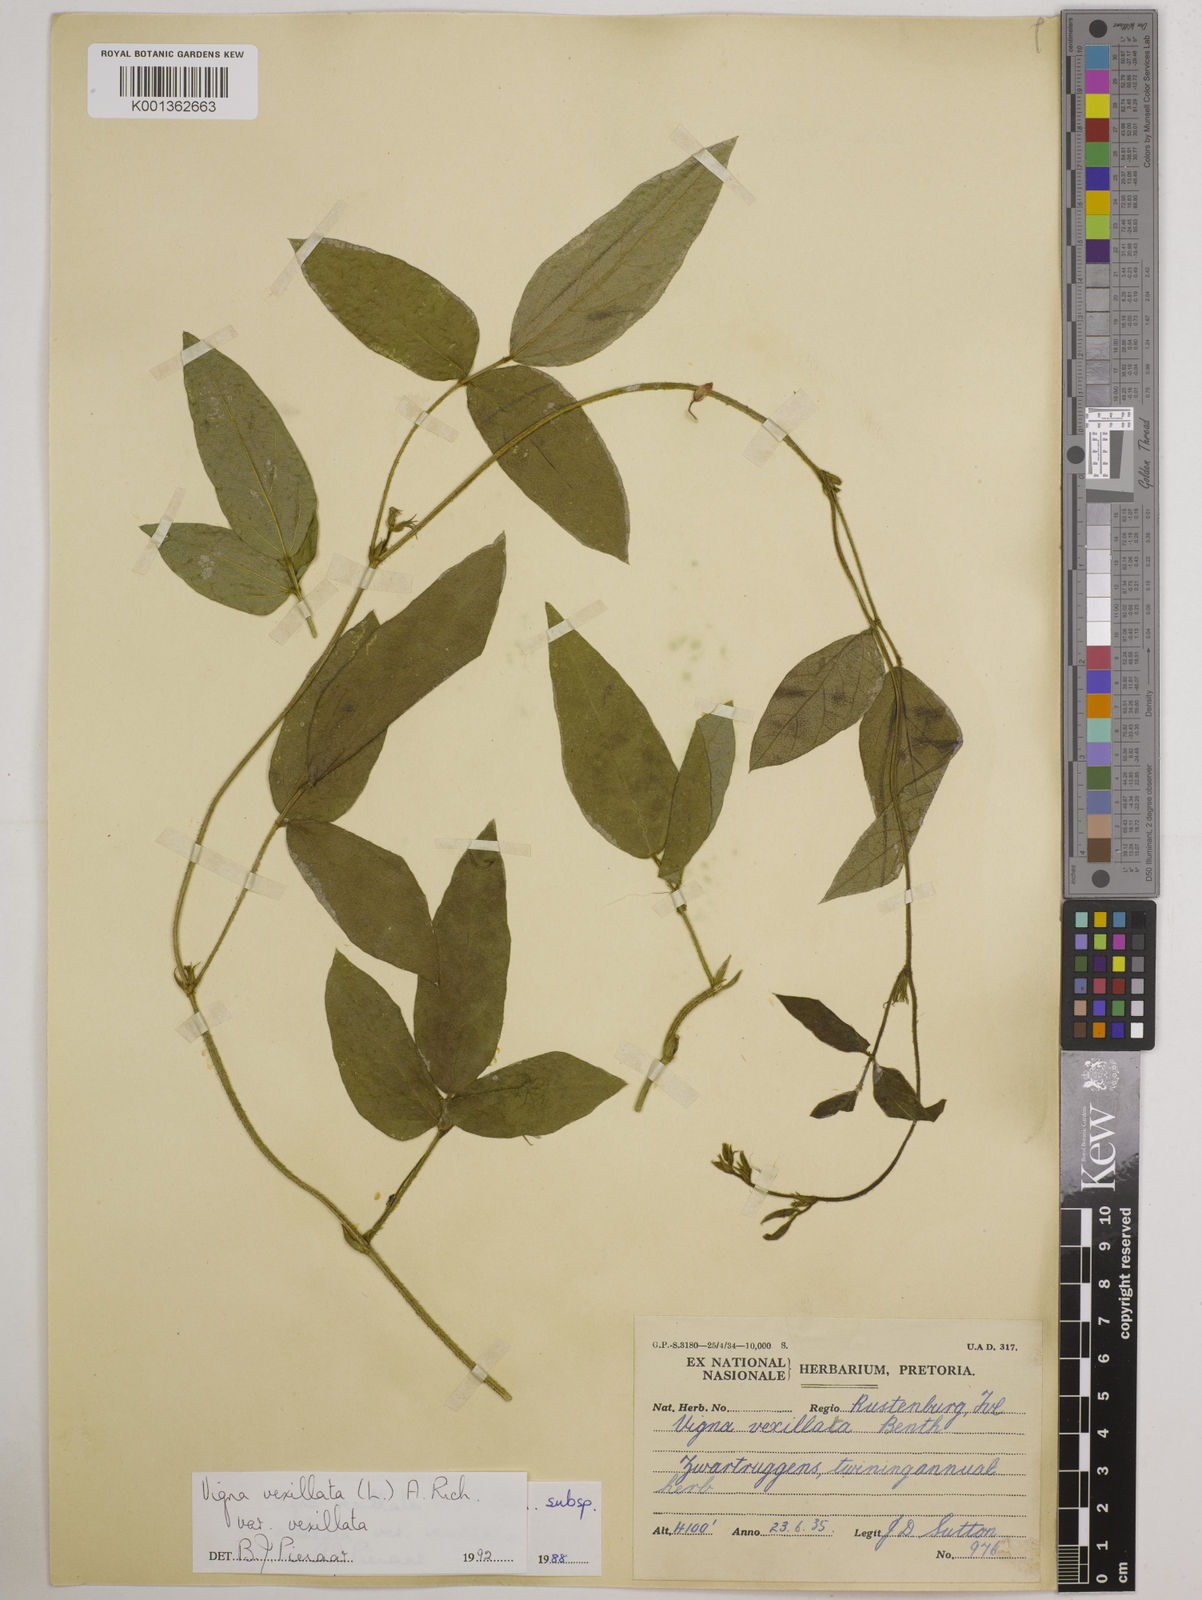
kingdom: Plantae
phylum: Tracheophyta
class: Magnoliopsida
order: Fabales
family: Fabaceae
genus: Vigna
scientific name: Vigna
